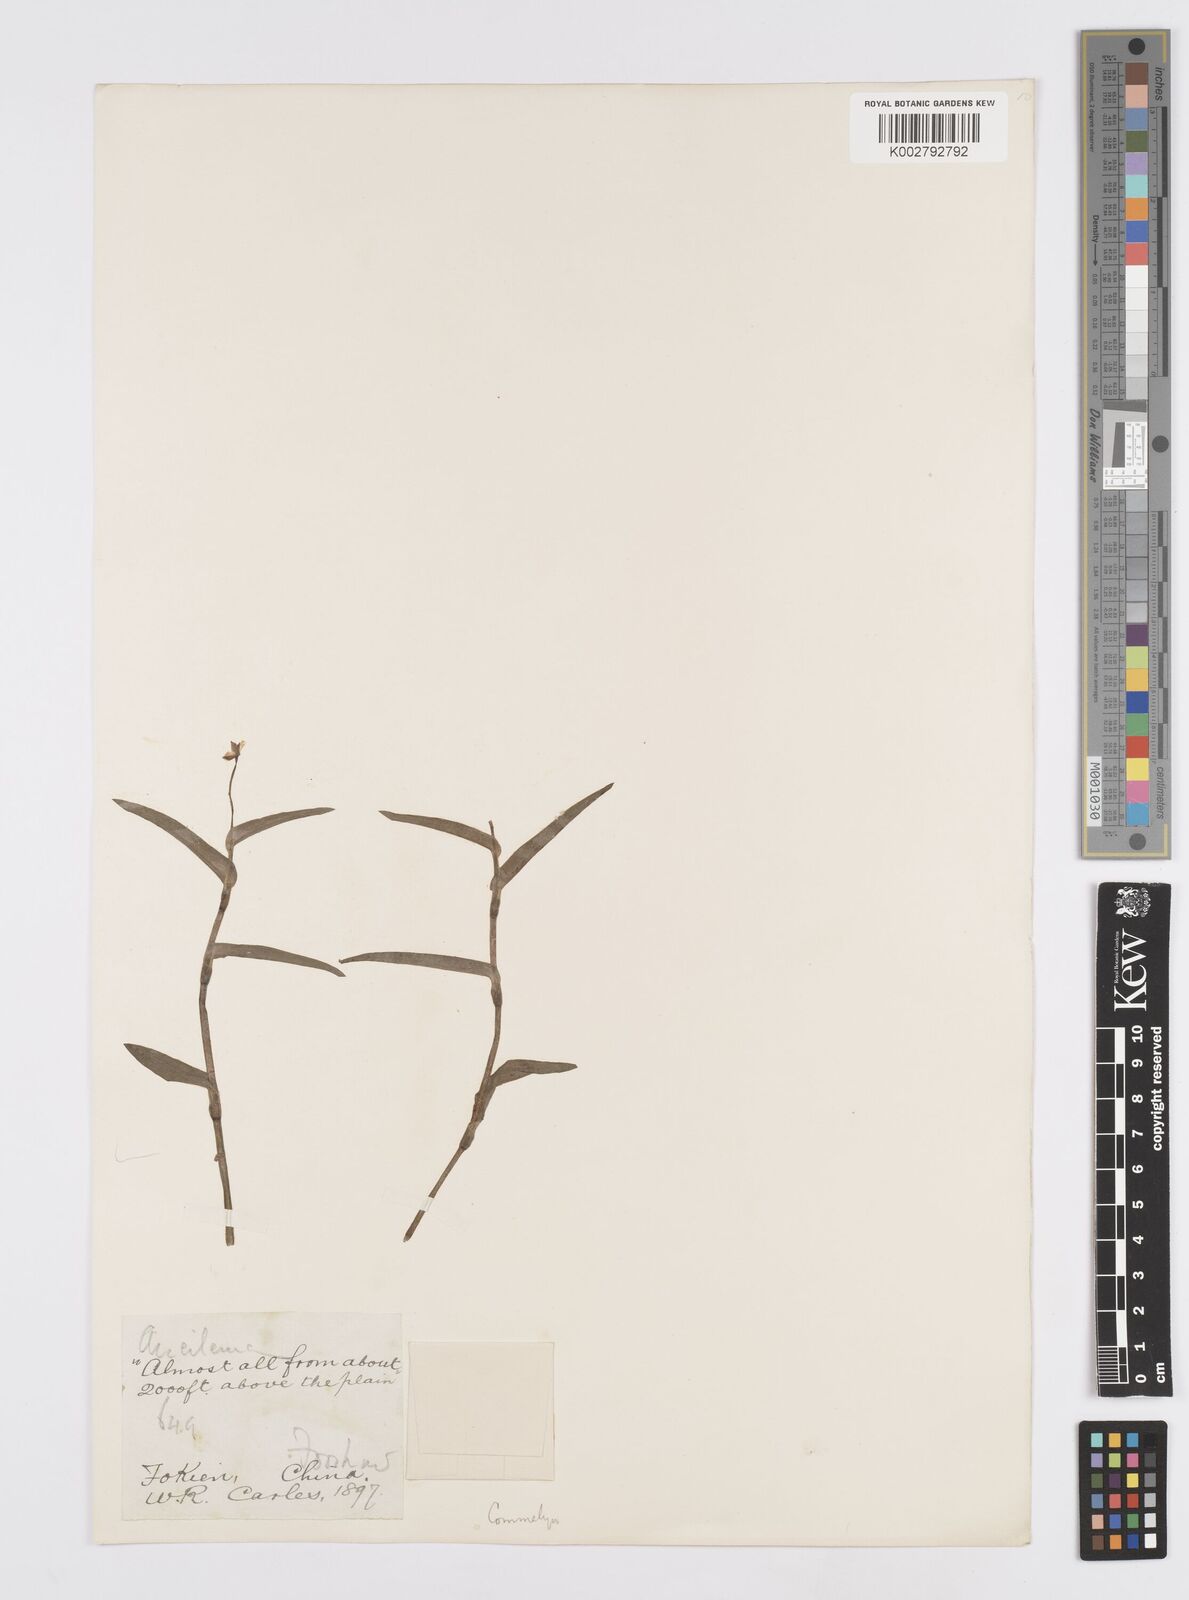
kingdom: Plantae
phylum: Tracheophyta
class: Liliopsida
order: Commelinales
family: Commelinaceae
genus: Murdannia
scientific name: Murdannia keisak
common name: Wartremoving herb
